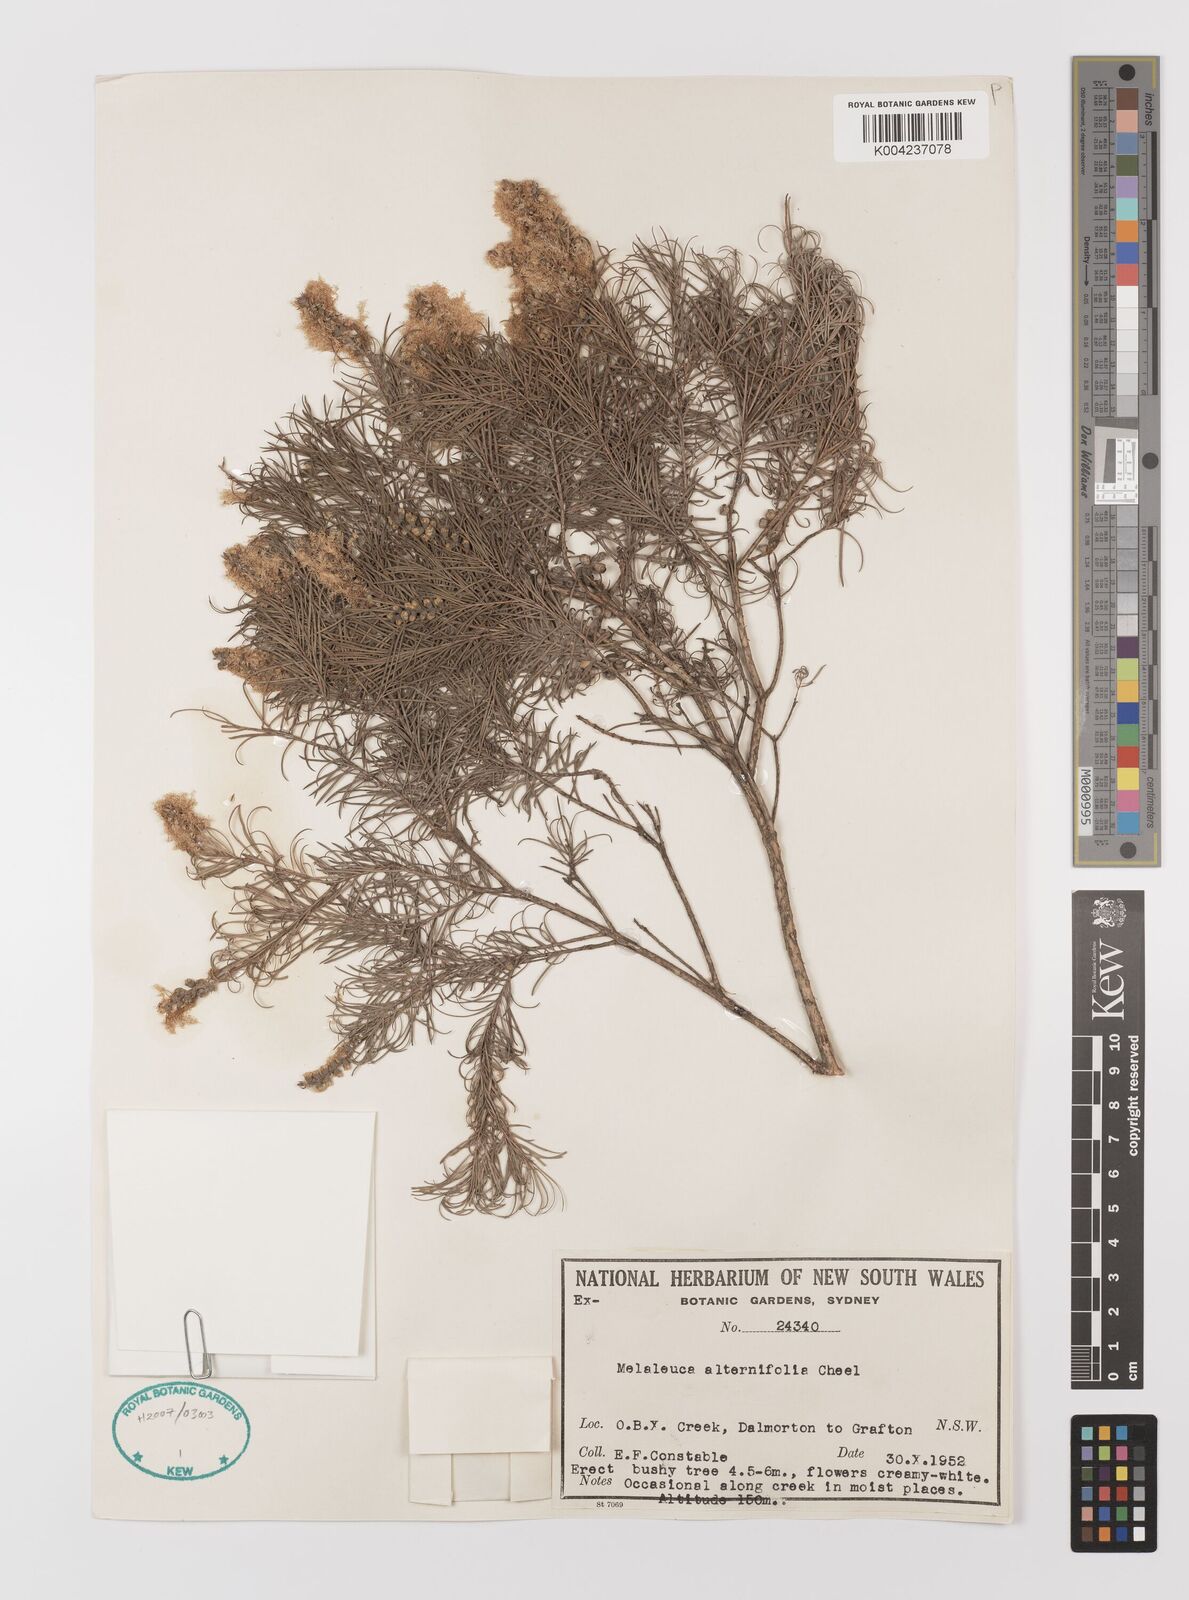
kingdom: Plantae
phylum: Tracheophyta
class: Magnoliopsida
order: Myrtales
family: Myrtaceae
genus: Melaleuca
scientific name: Melaleuca alternifolia
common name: Narrow-leaf paperbark
